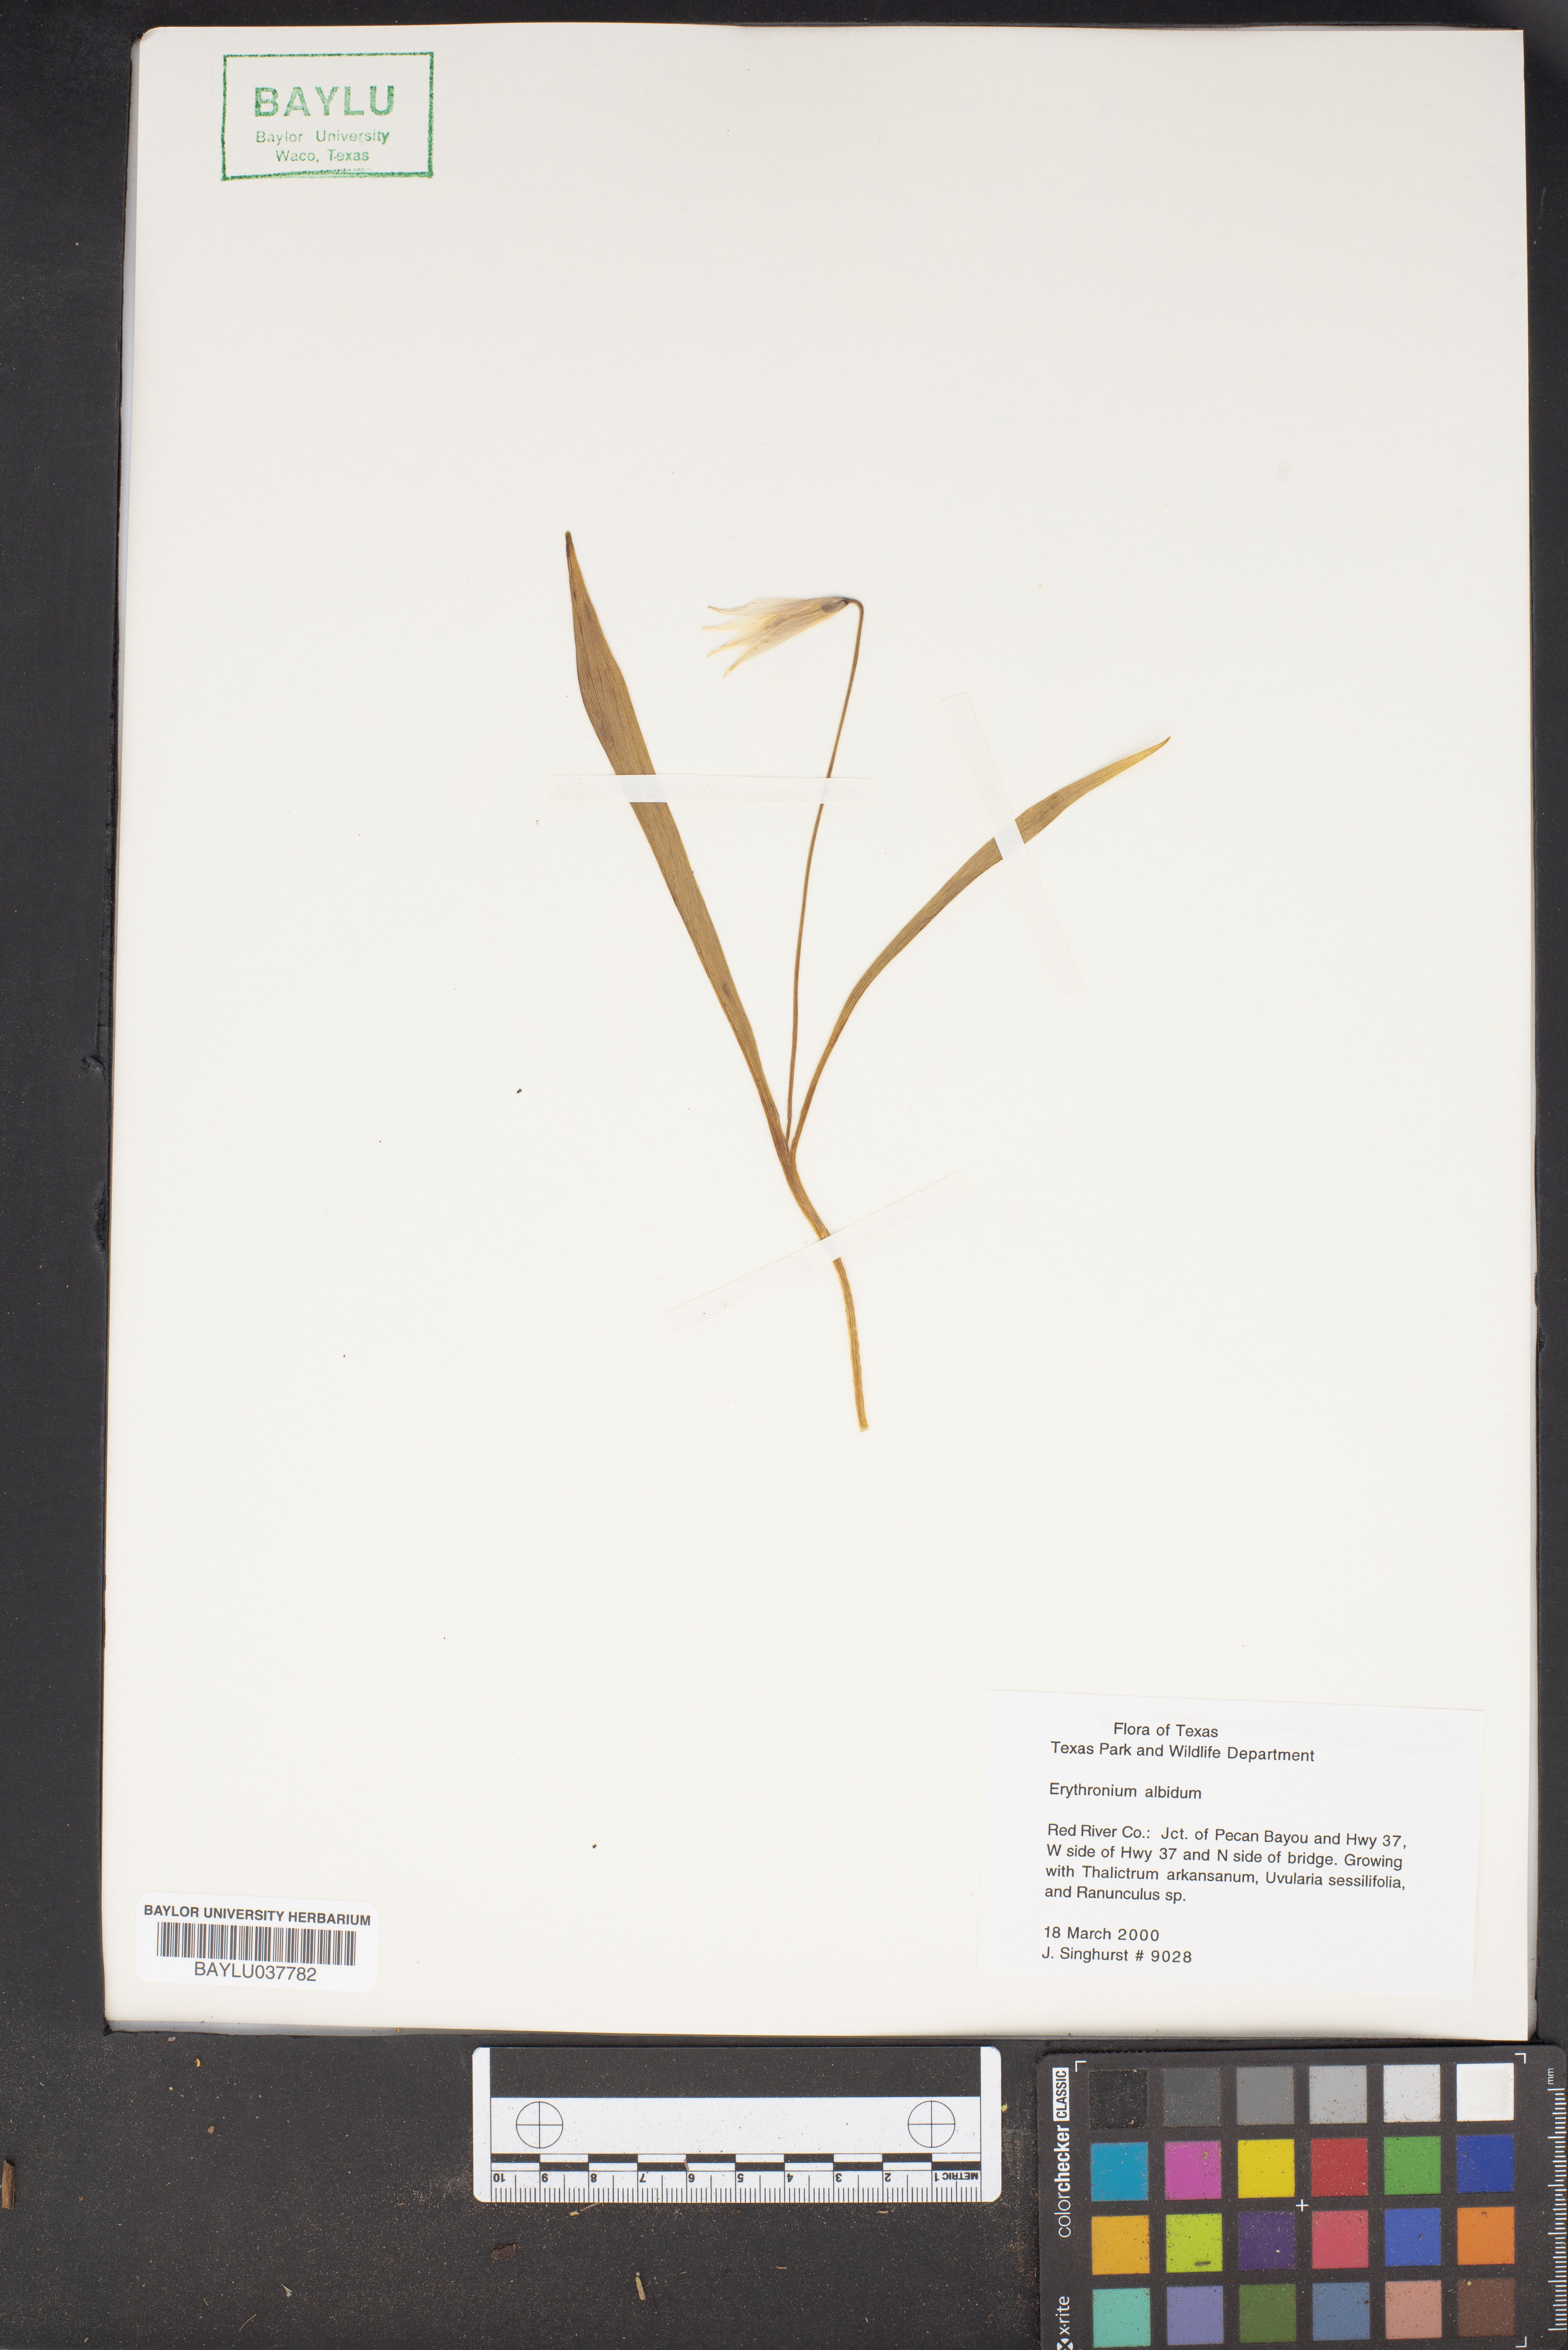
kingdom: Plantae
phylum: Tracheophyta
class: Liliopsida
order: Liliales
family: Liliaceae
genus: Erythronium
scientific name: Erythronium albidum
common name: White trout-lily
